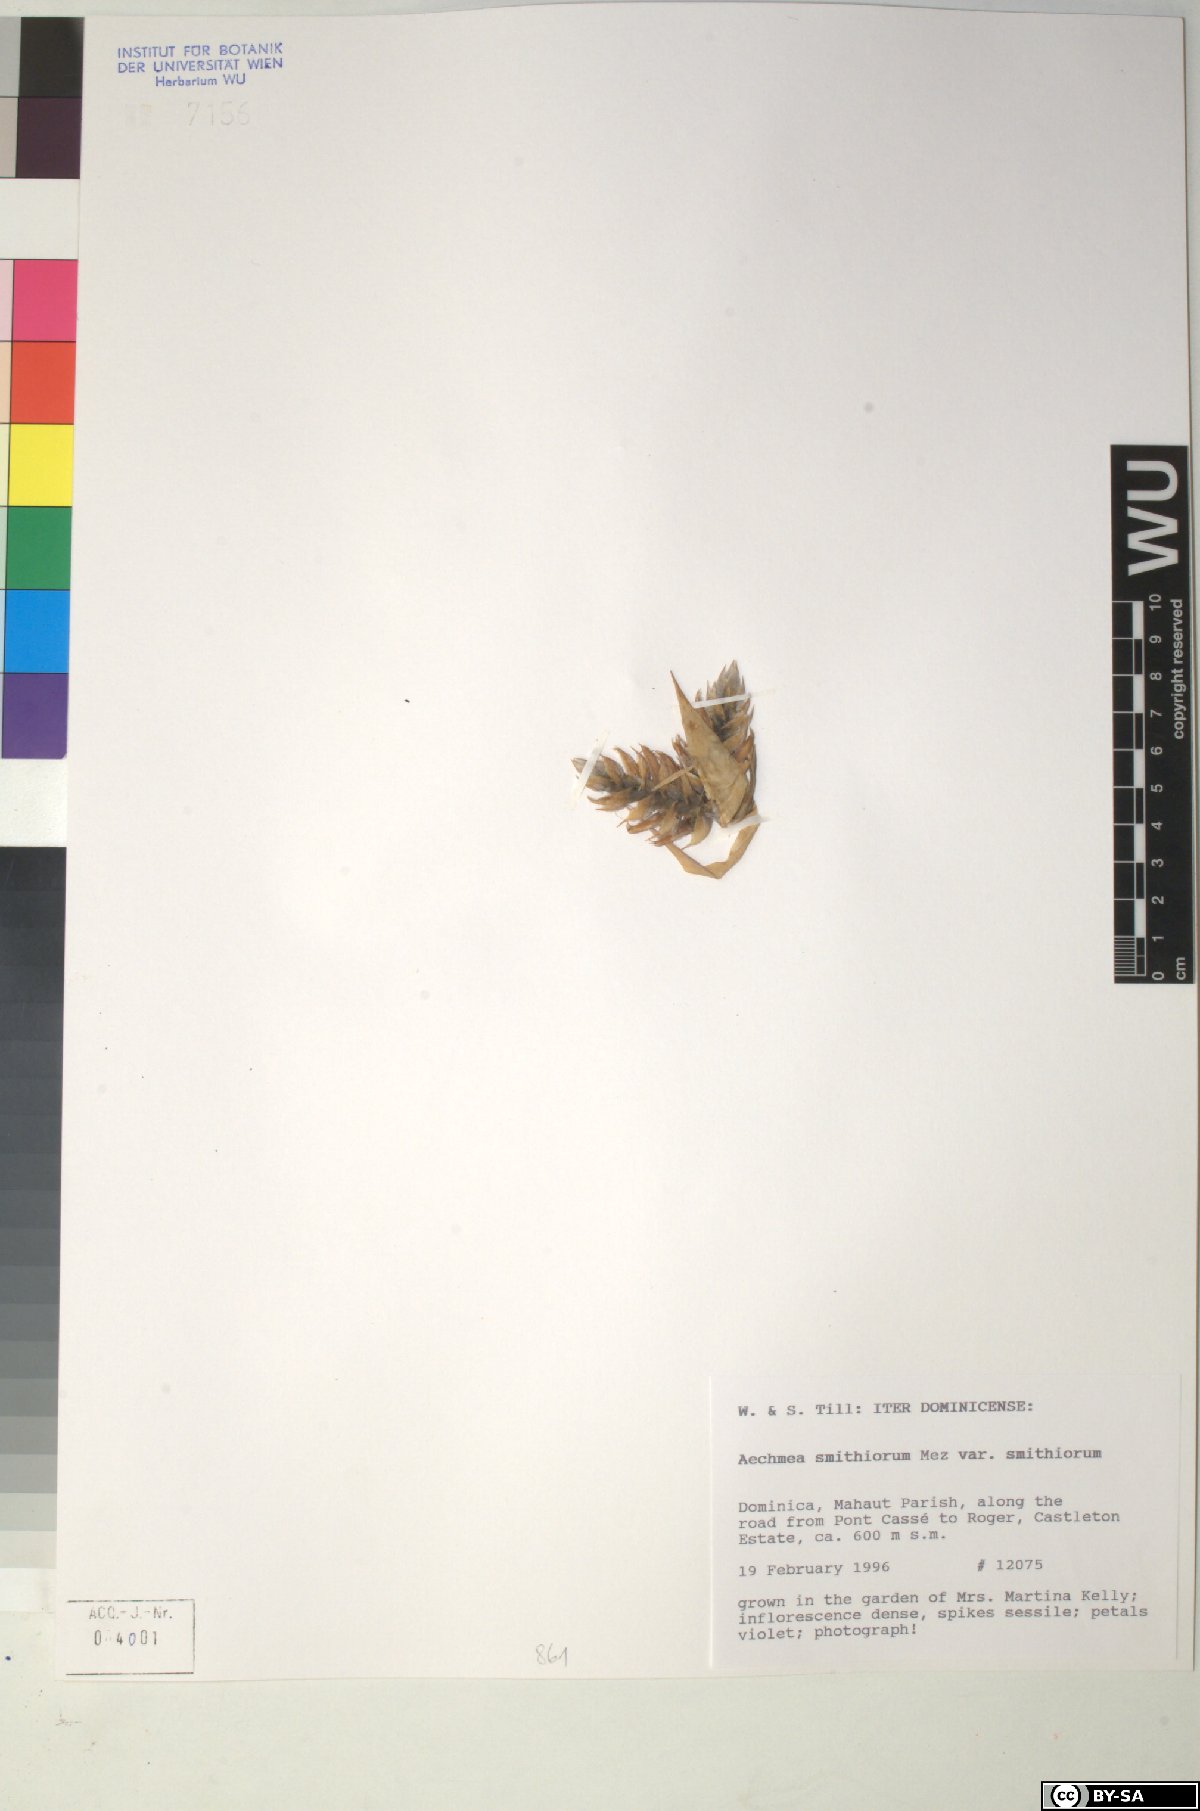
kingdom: Plantae
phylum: Tracheophyta
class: Liliopsida
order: Poales
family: Bromeliaceae
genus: Aechmea
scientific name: Aechmea smithiorum
